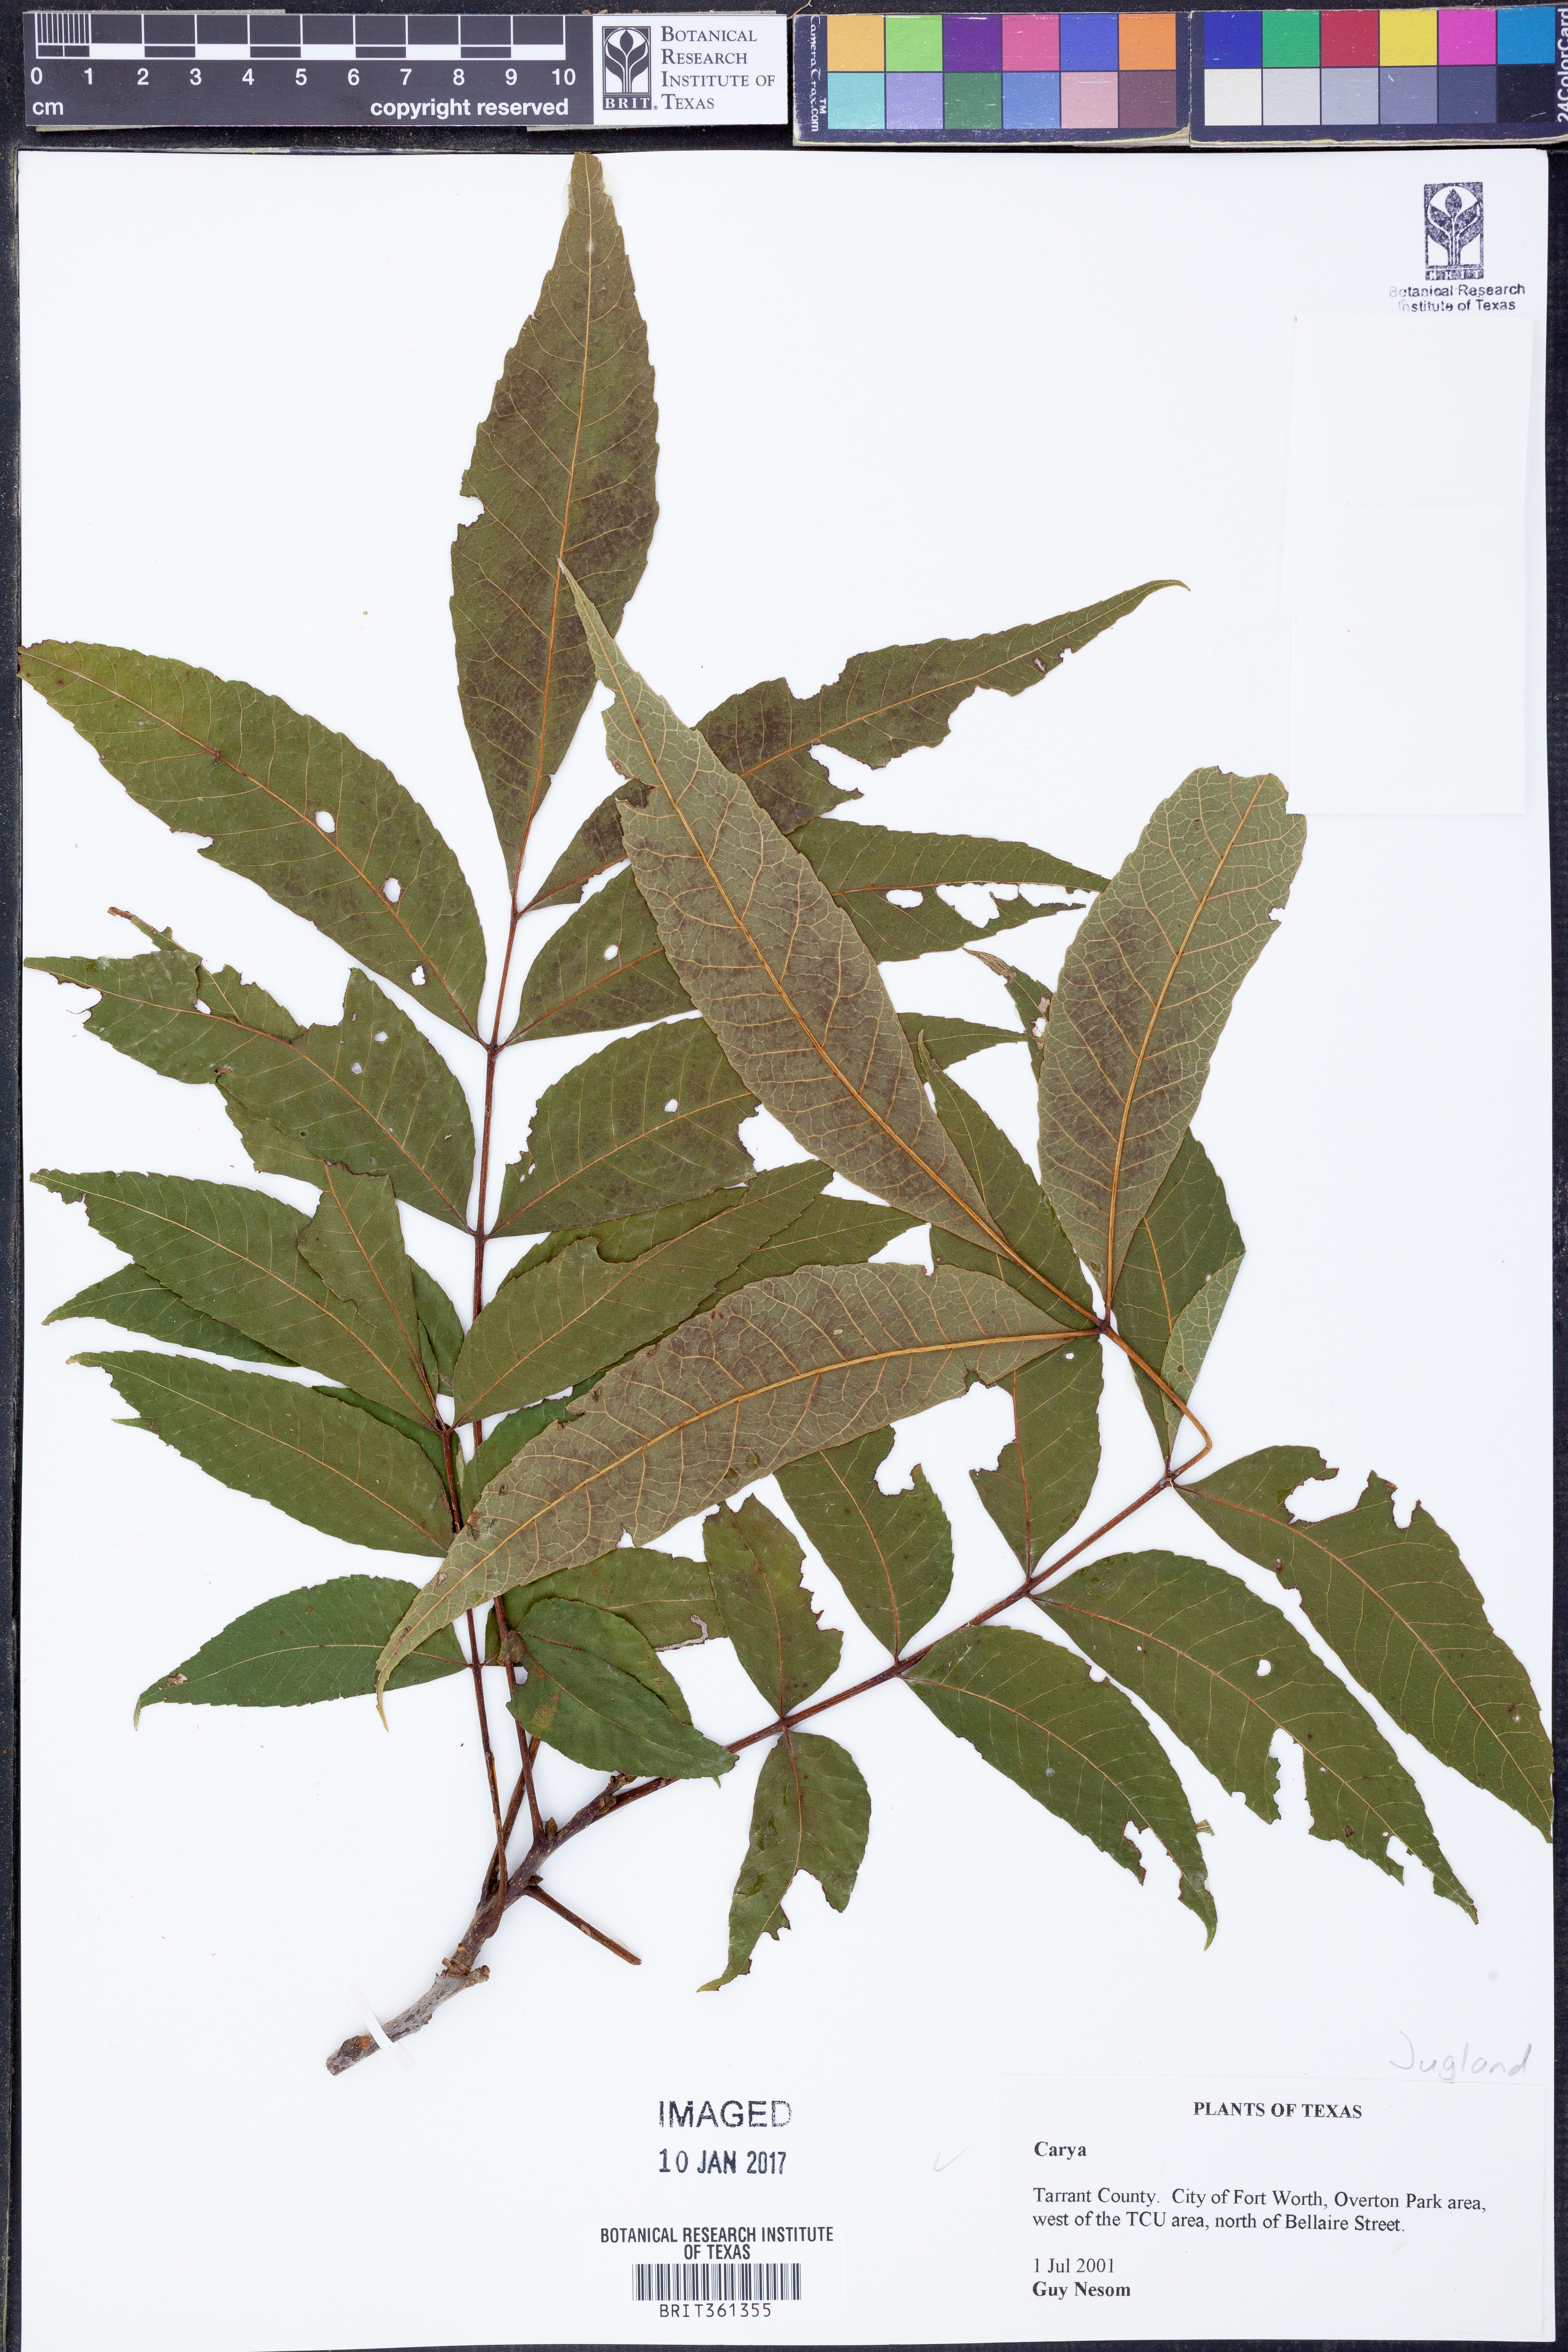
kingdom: Plantae
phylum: Tracheophyta
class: Magnoliopsida
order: Fagales
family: Juglandaceae
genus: Carya
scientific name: Carya
